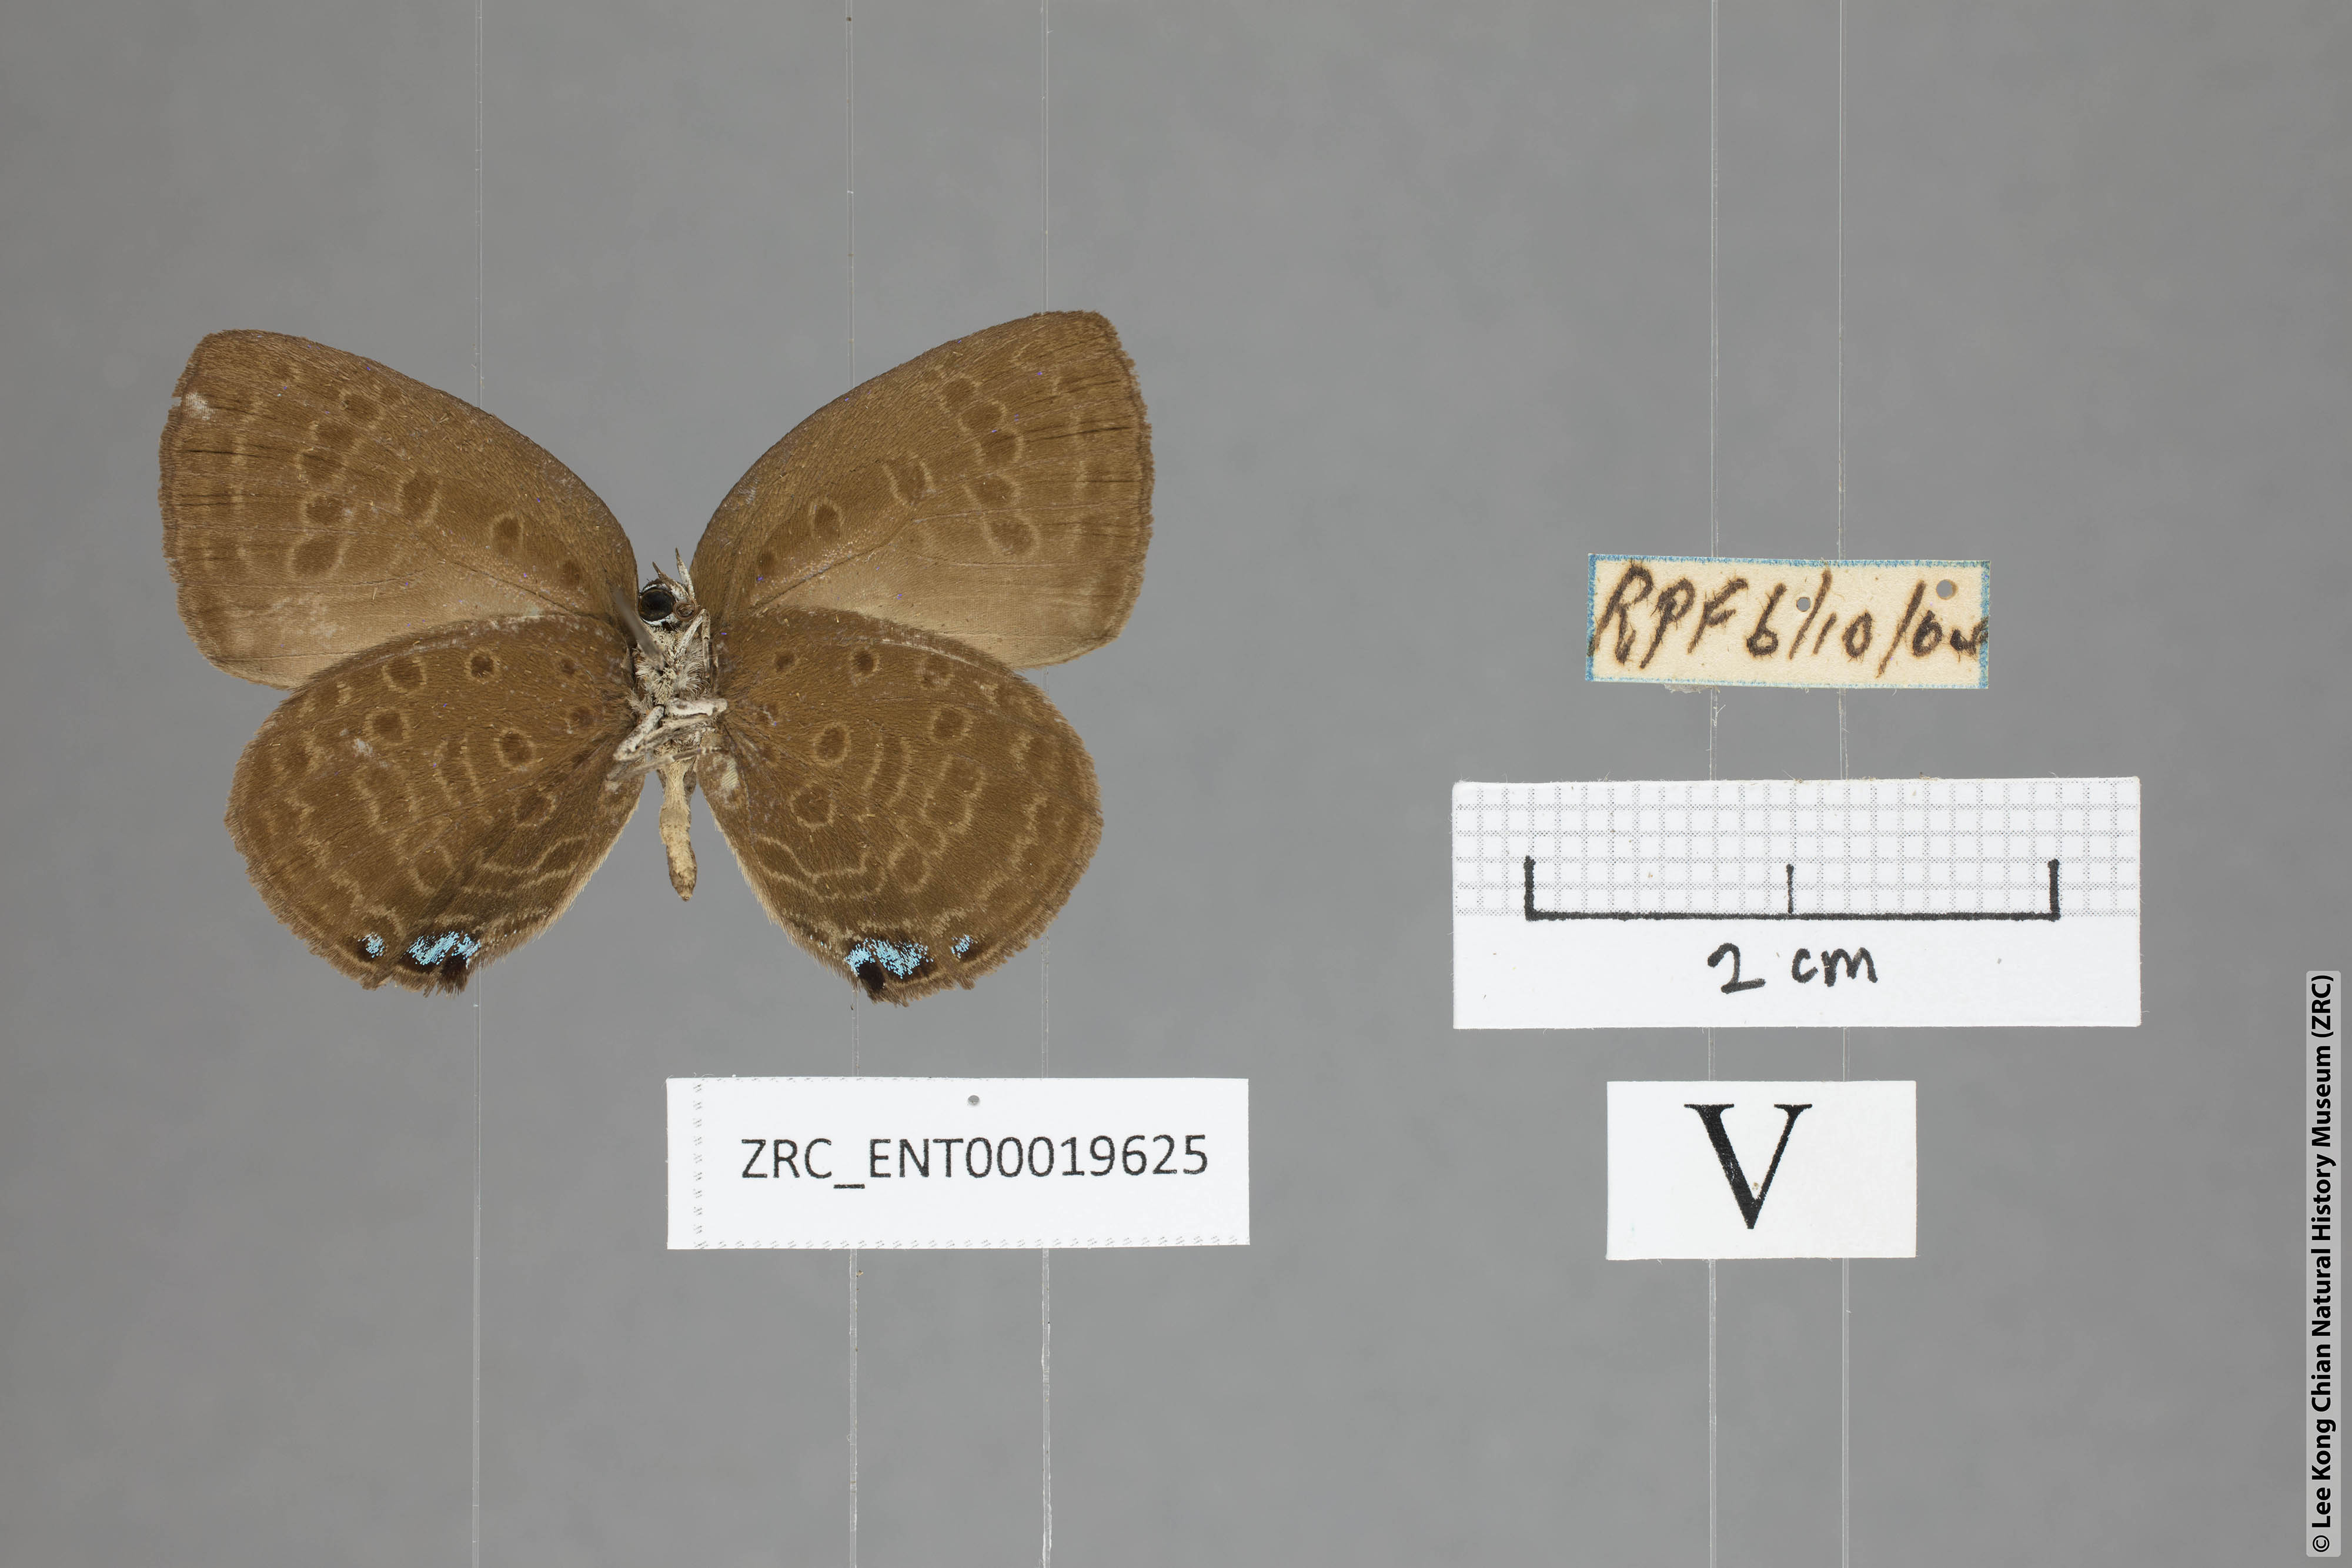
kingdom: Animalia
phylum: Arthropoda
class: Insecta
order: Lepidoptera
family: Lycaenidae
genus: Arhopala
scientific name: Arhopala major
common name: Major yellow oakblue
